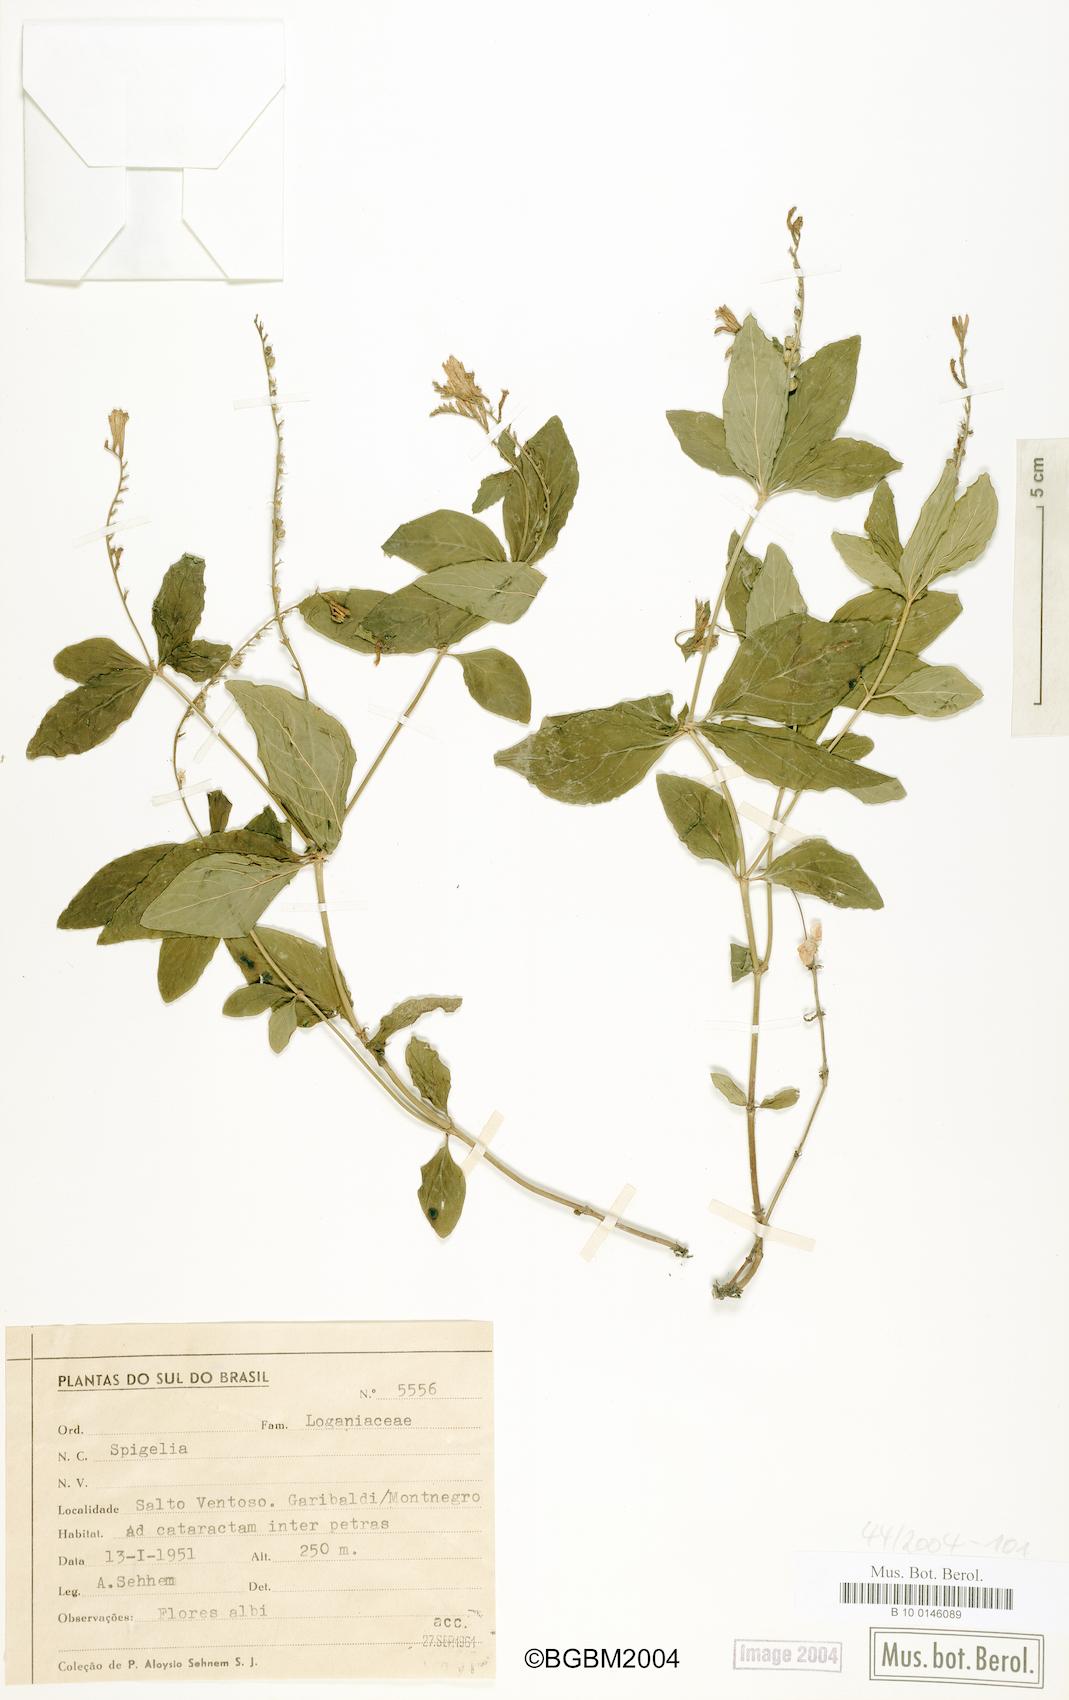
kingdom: Plantae
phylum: Tracheophyta
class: Magnoliopsida
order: Gentianales
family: Loganiaceae
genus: Spigelia
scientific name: Spigelia
